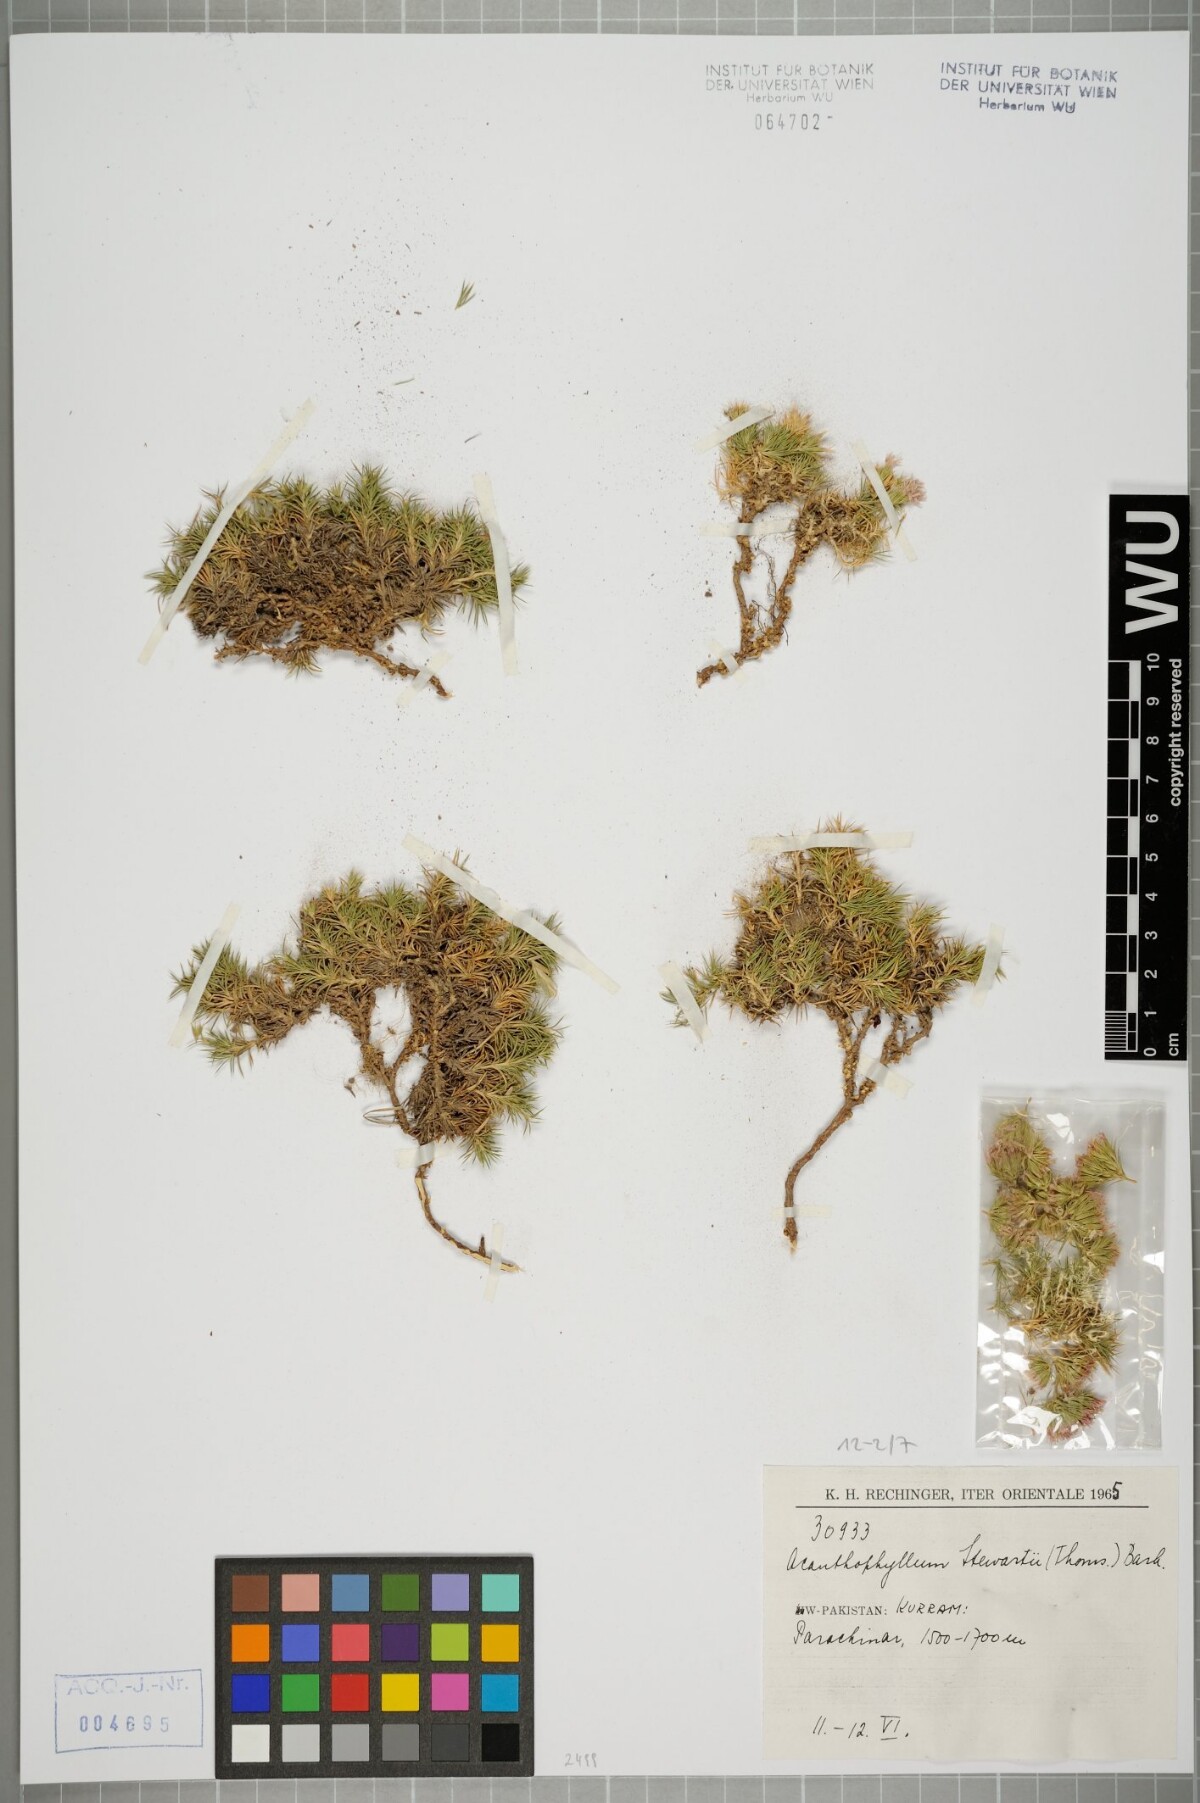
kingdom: Plantae
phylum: Tracheophyta
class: Magnoliopsida
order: Caryophyllales
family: Caryophyllaceae
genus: Acanthophyllum
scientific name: Acanthophyllum stewartii
